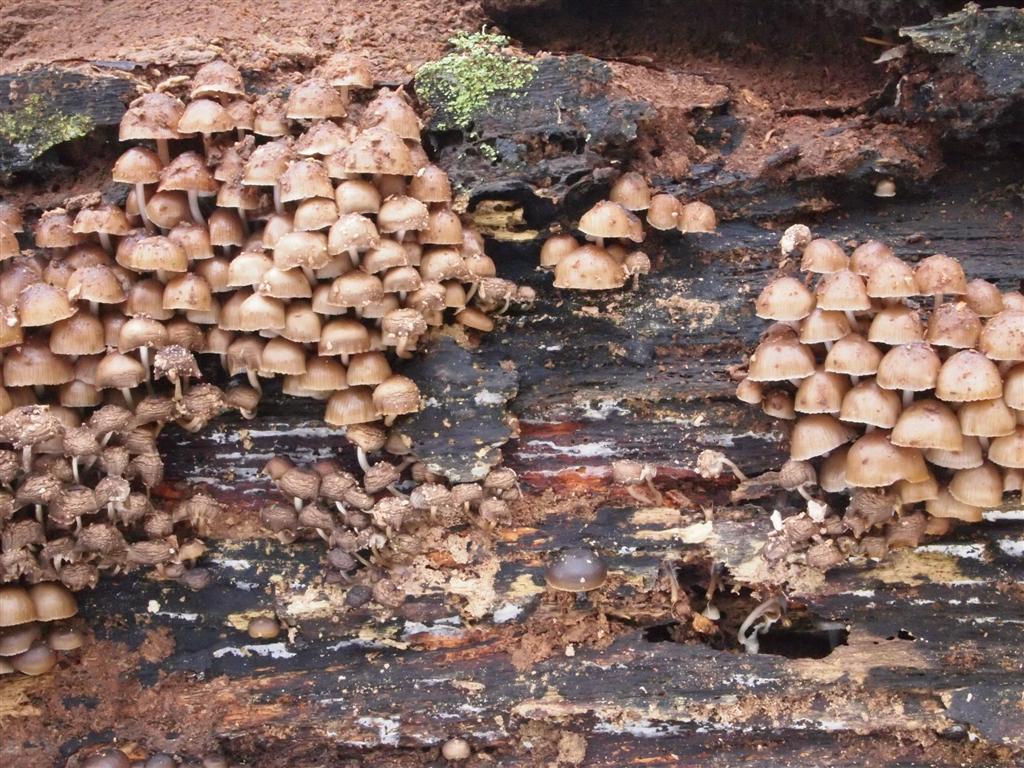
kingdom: Fungi
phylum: Basidiomycota
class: Agaricomycetes
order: Agaricales
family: Mycenaceae
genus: Mycena
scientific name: Mycena tintinnabulum
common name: vinter-huesvamp
